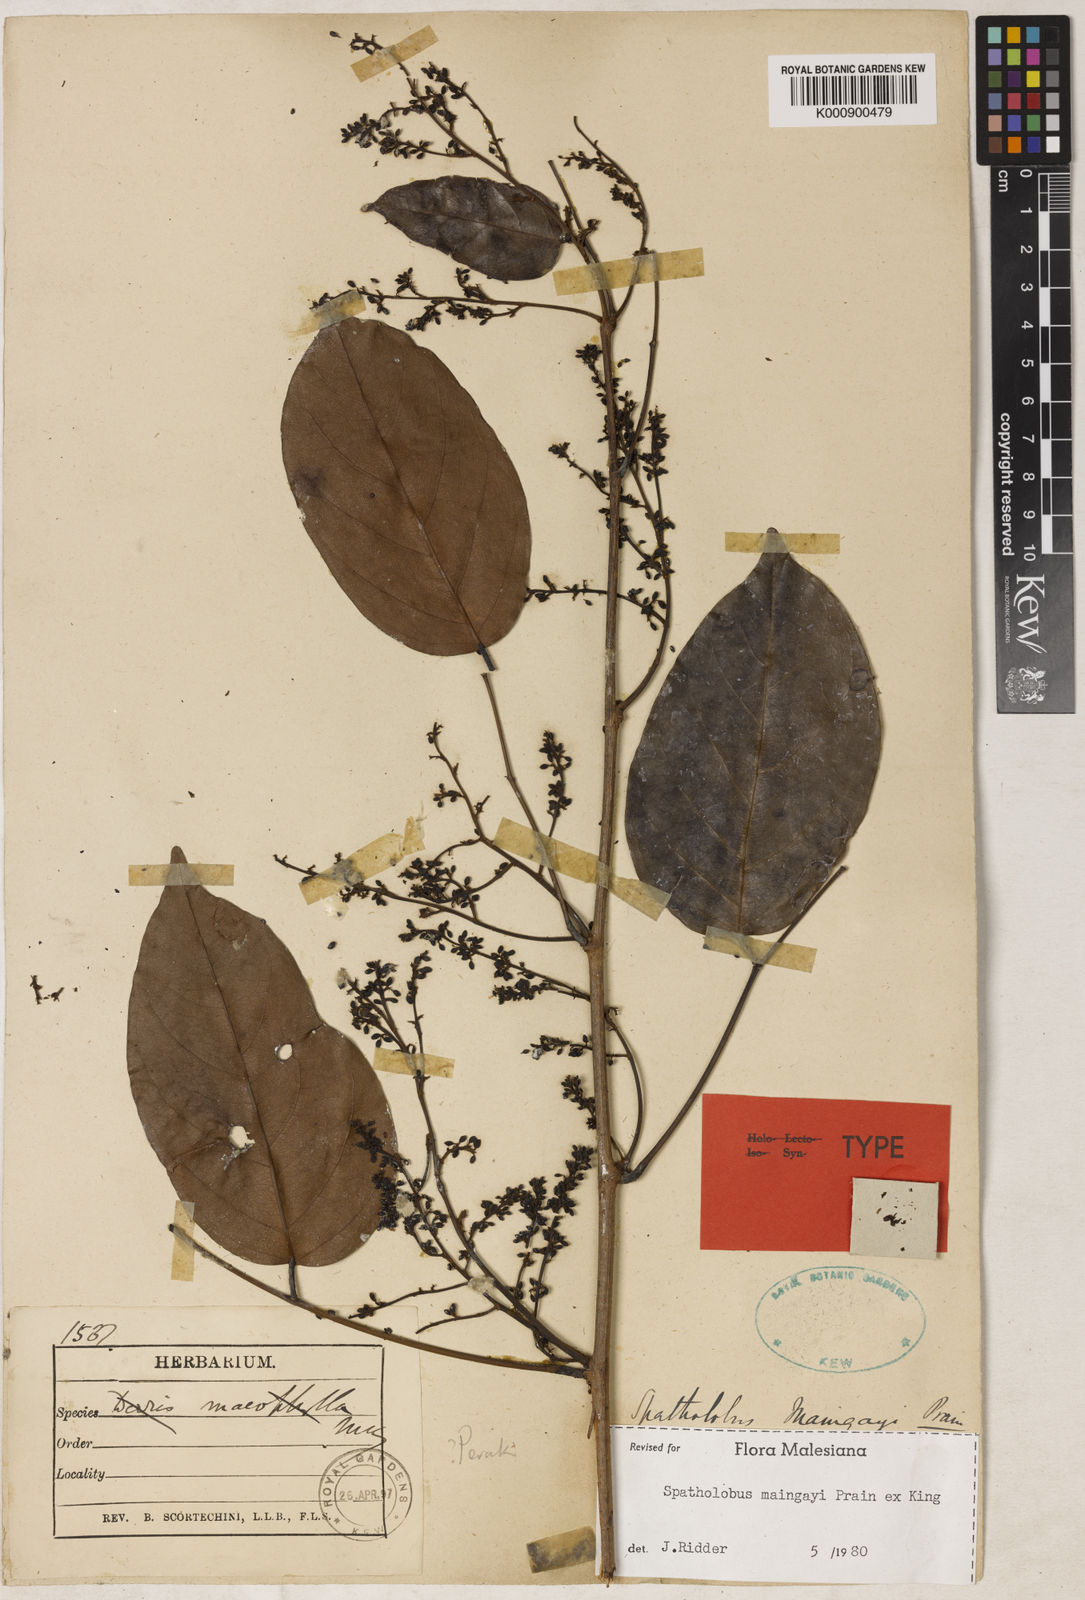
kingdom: Plantae
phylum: Tracheophyta
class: Magnoliopsida
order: Fabales
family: Fabaceae
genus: Spatholobus
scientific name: Spatholobus
